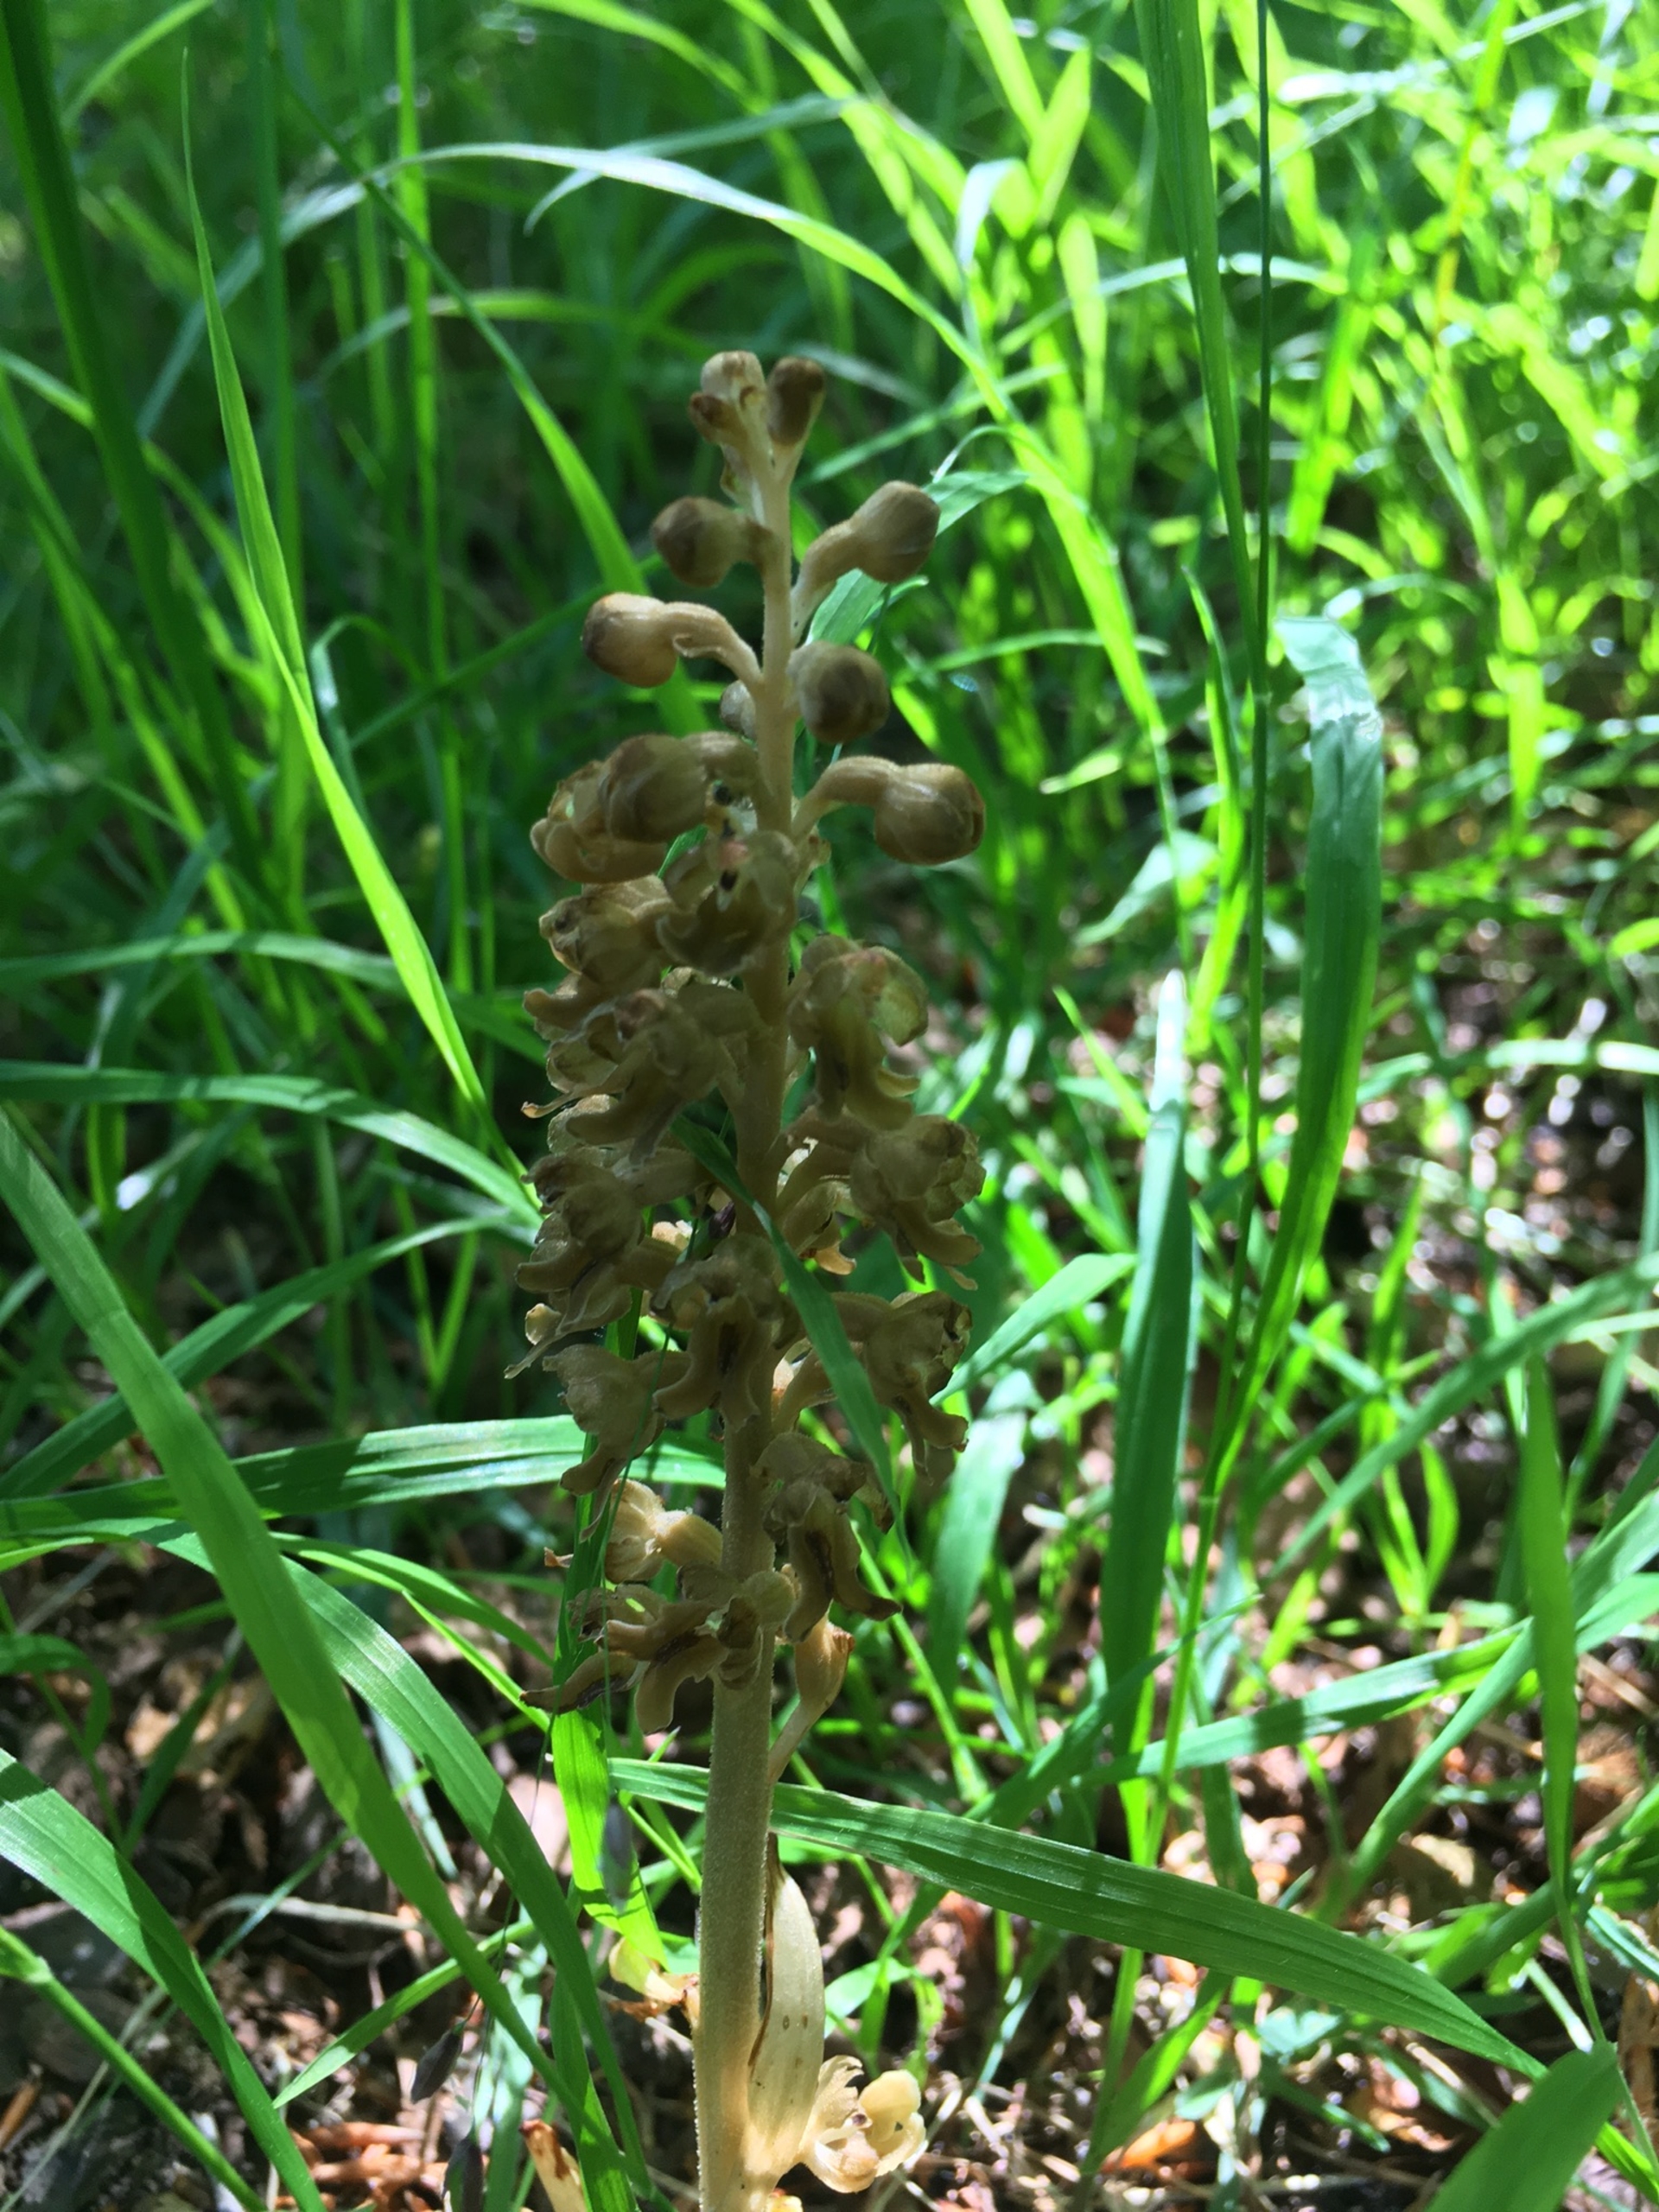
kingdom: Plantae
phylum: Tracheophyta
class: Liliopsida
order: Asparagales
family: Orchidaceae
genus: Neottia
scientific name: Neottia nidus-avis
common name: Rederod
